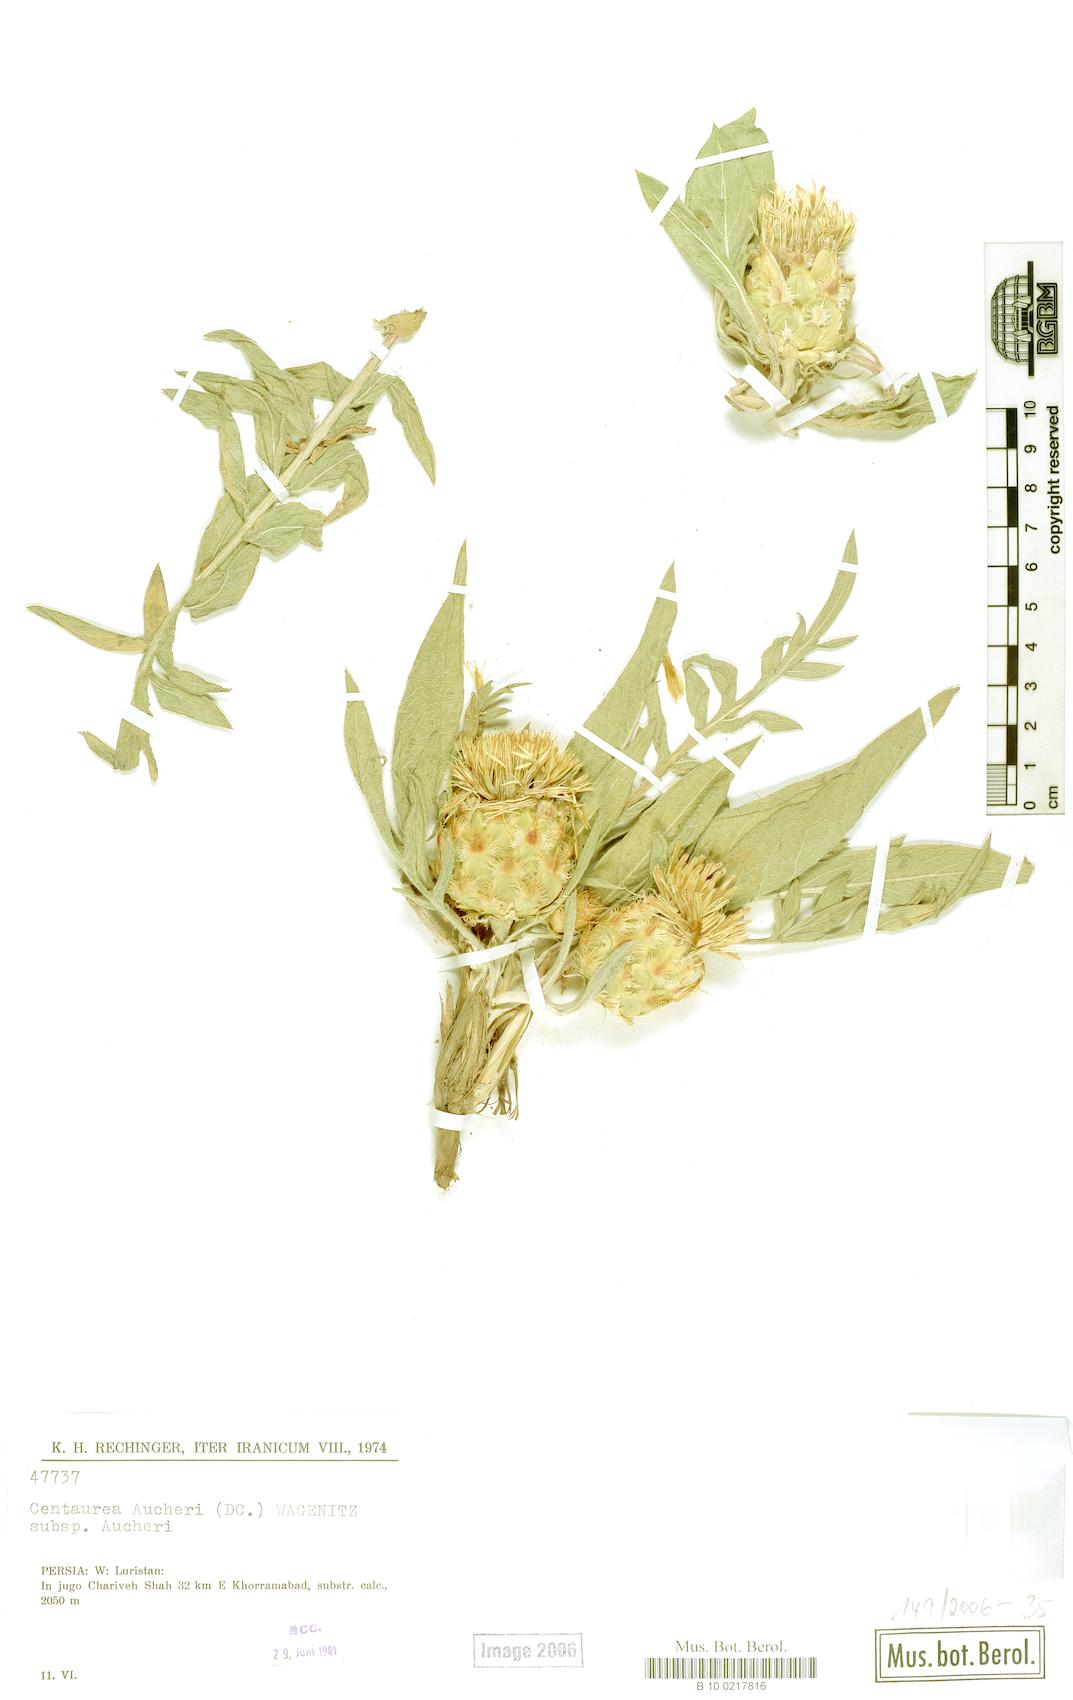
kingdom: Plantae
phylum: Tracheophyta
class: Magnoliopsida
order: Asterales
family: Asteraceae
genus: Centaurea
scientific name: Centaurea aucheri
